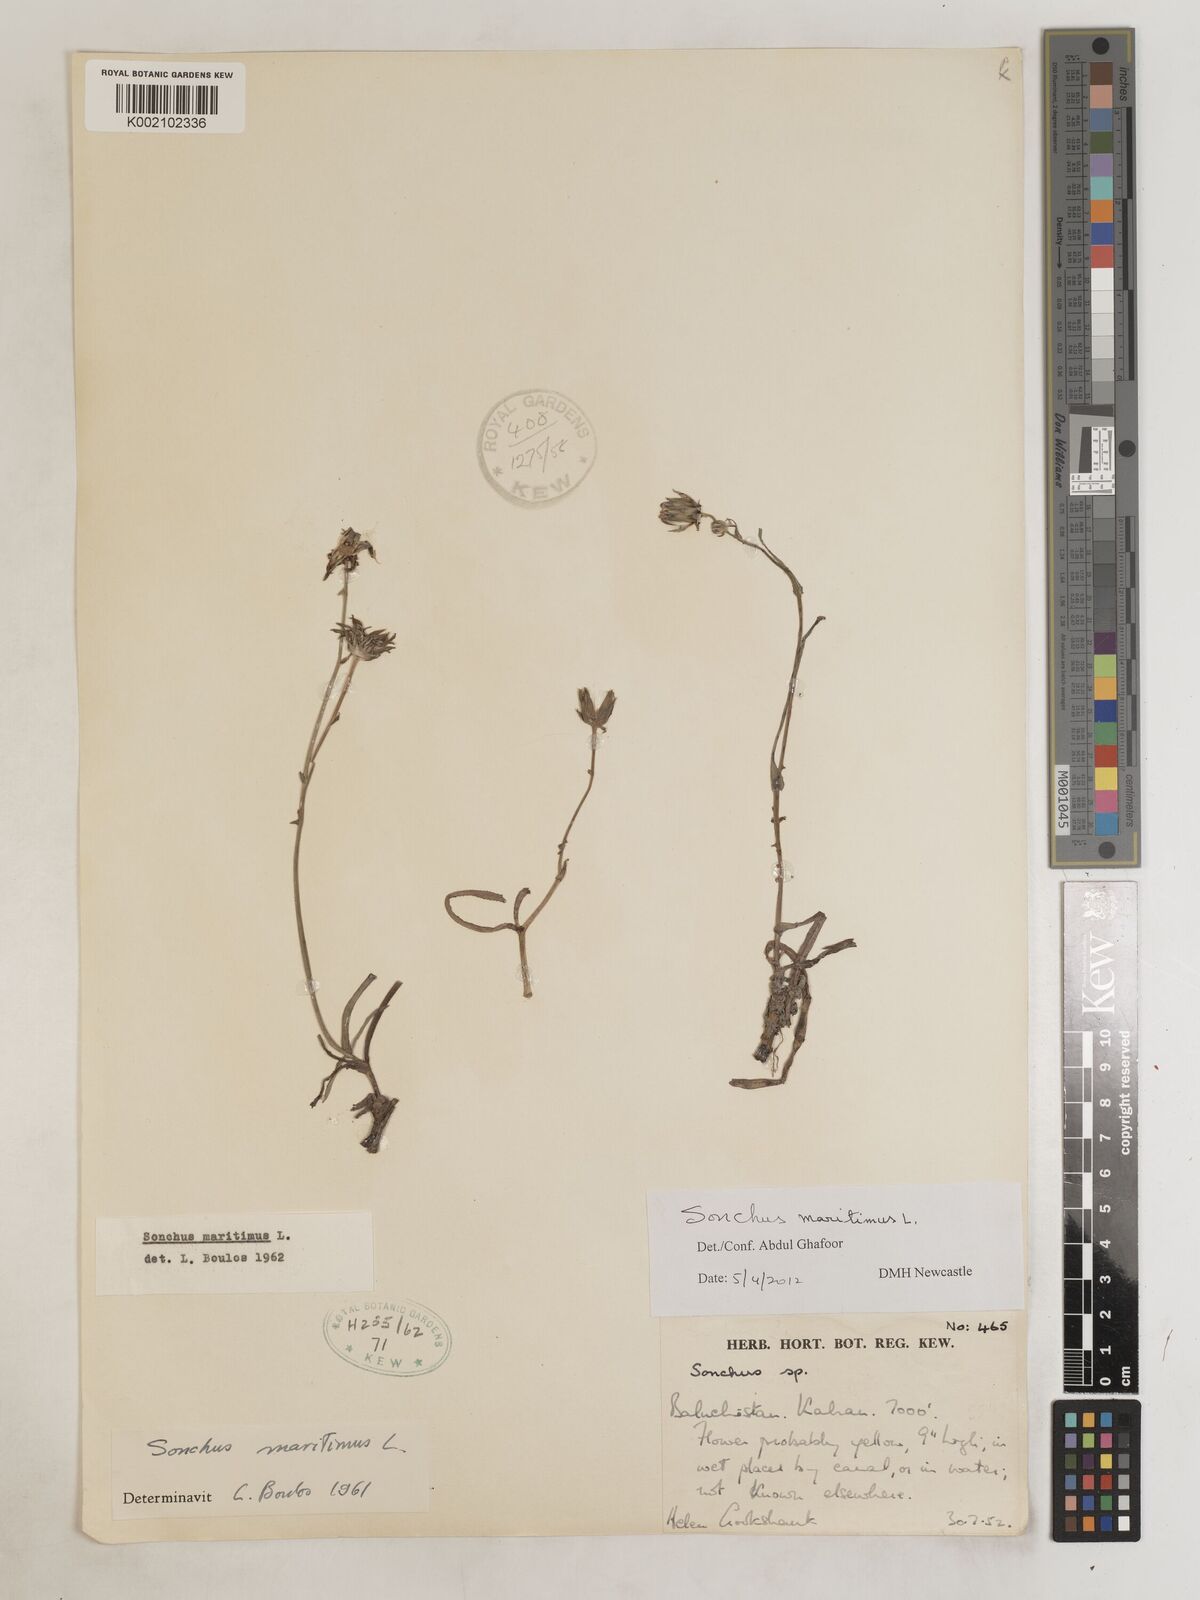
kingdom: Plantae
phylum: Tracheophyta
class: Magnoliopsida
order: Asterales
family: Asteraceae
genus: Sonchus
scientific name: Sonchus maritimus
